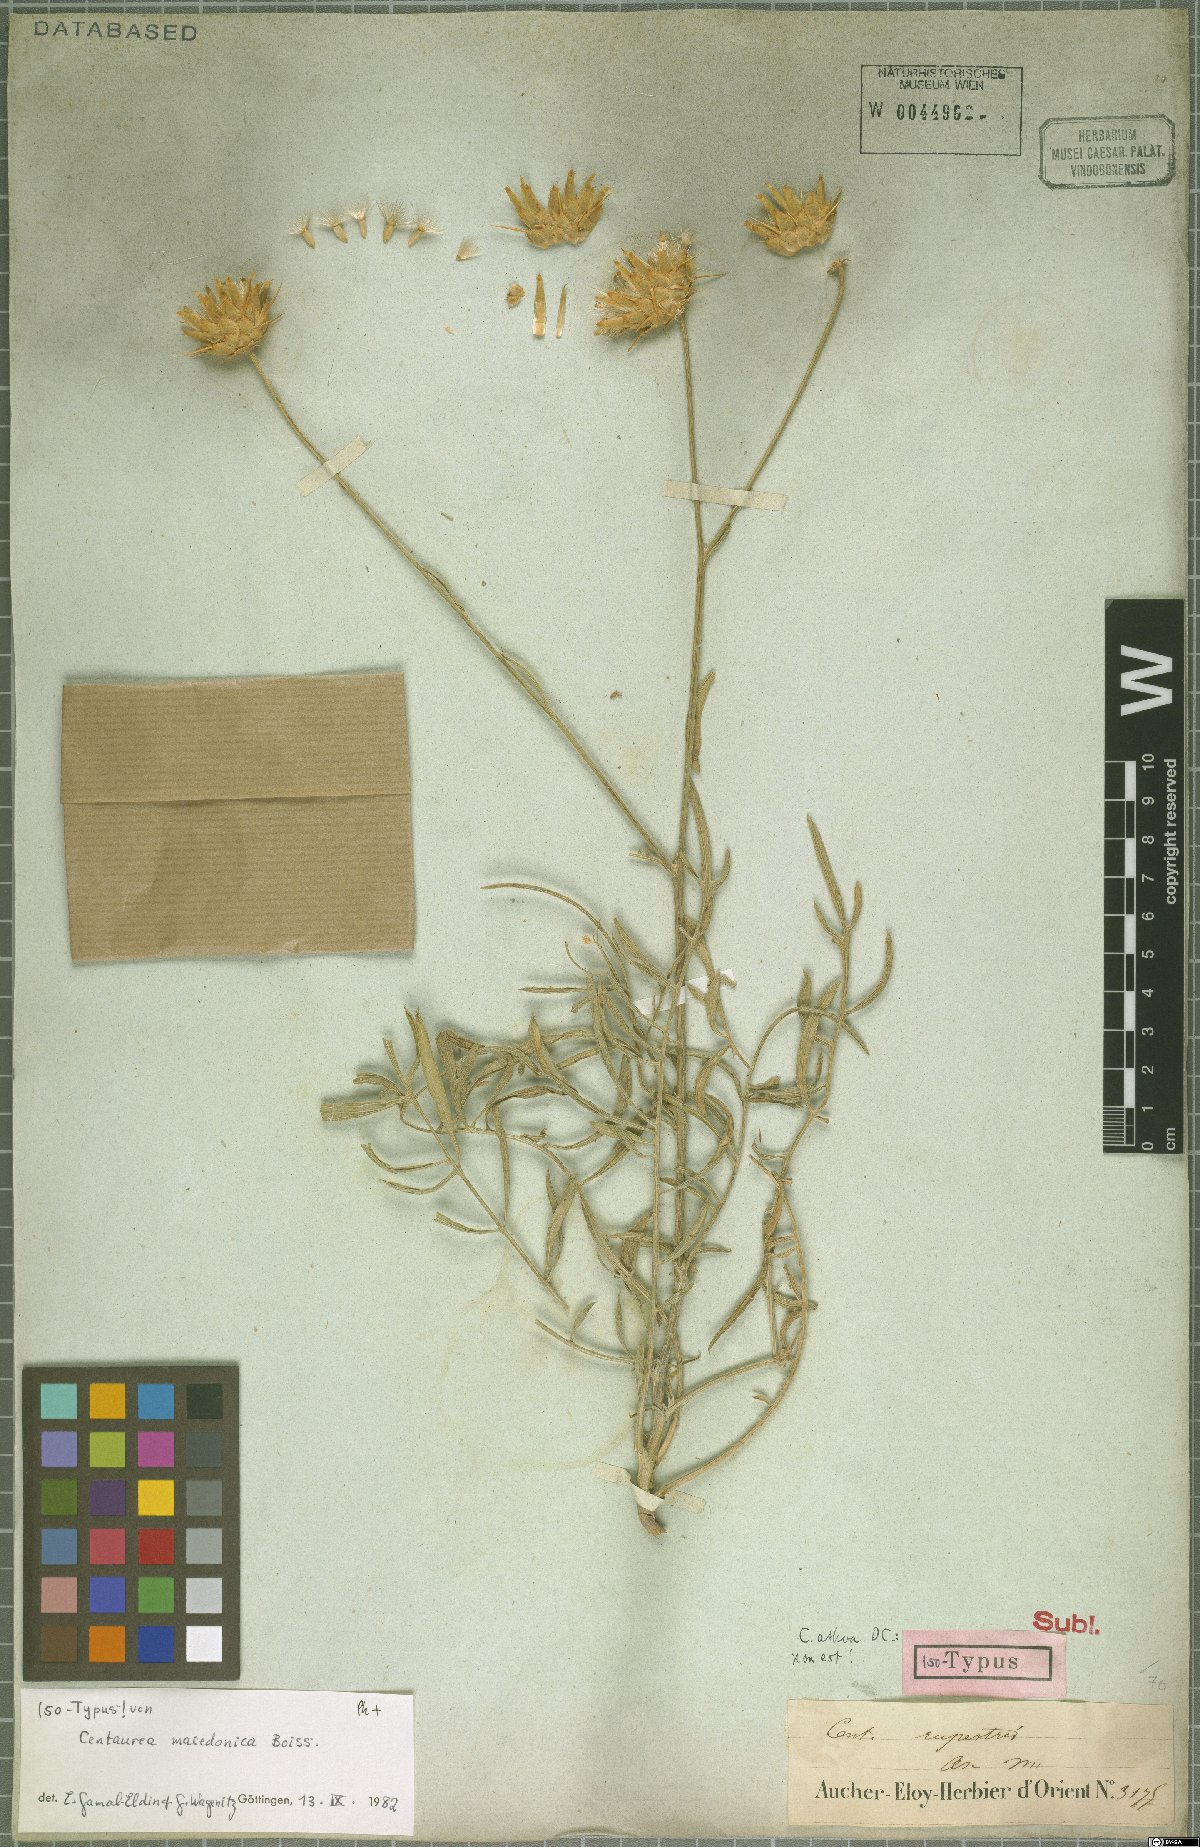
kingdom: Plantae
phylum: Tracheophyta
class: Magnoliopsida
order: Asterales
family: Asteraceae
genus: Centaurea
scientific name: Centaurea macedonica
